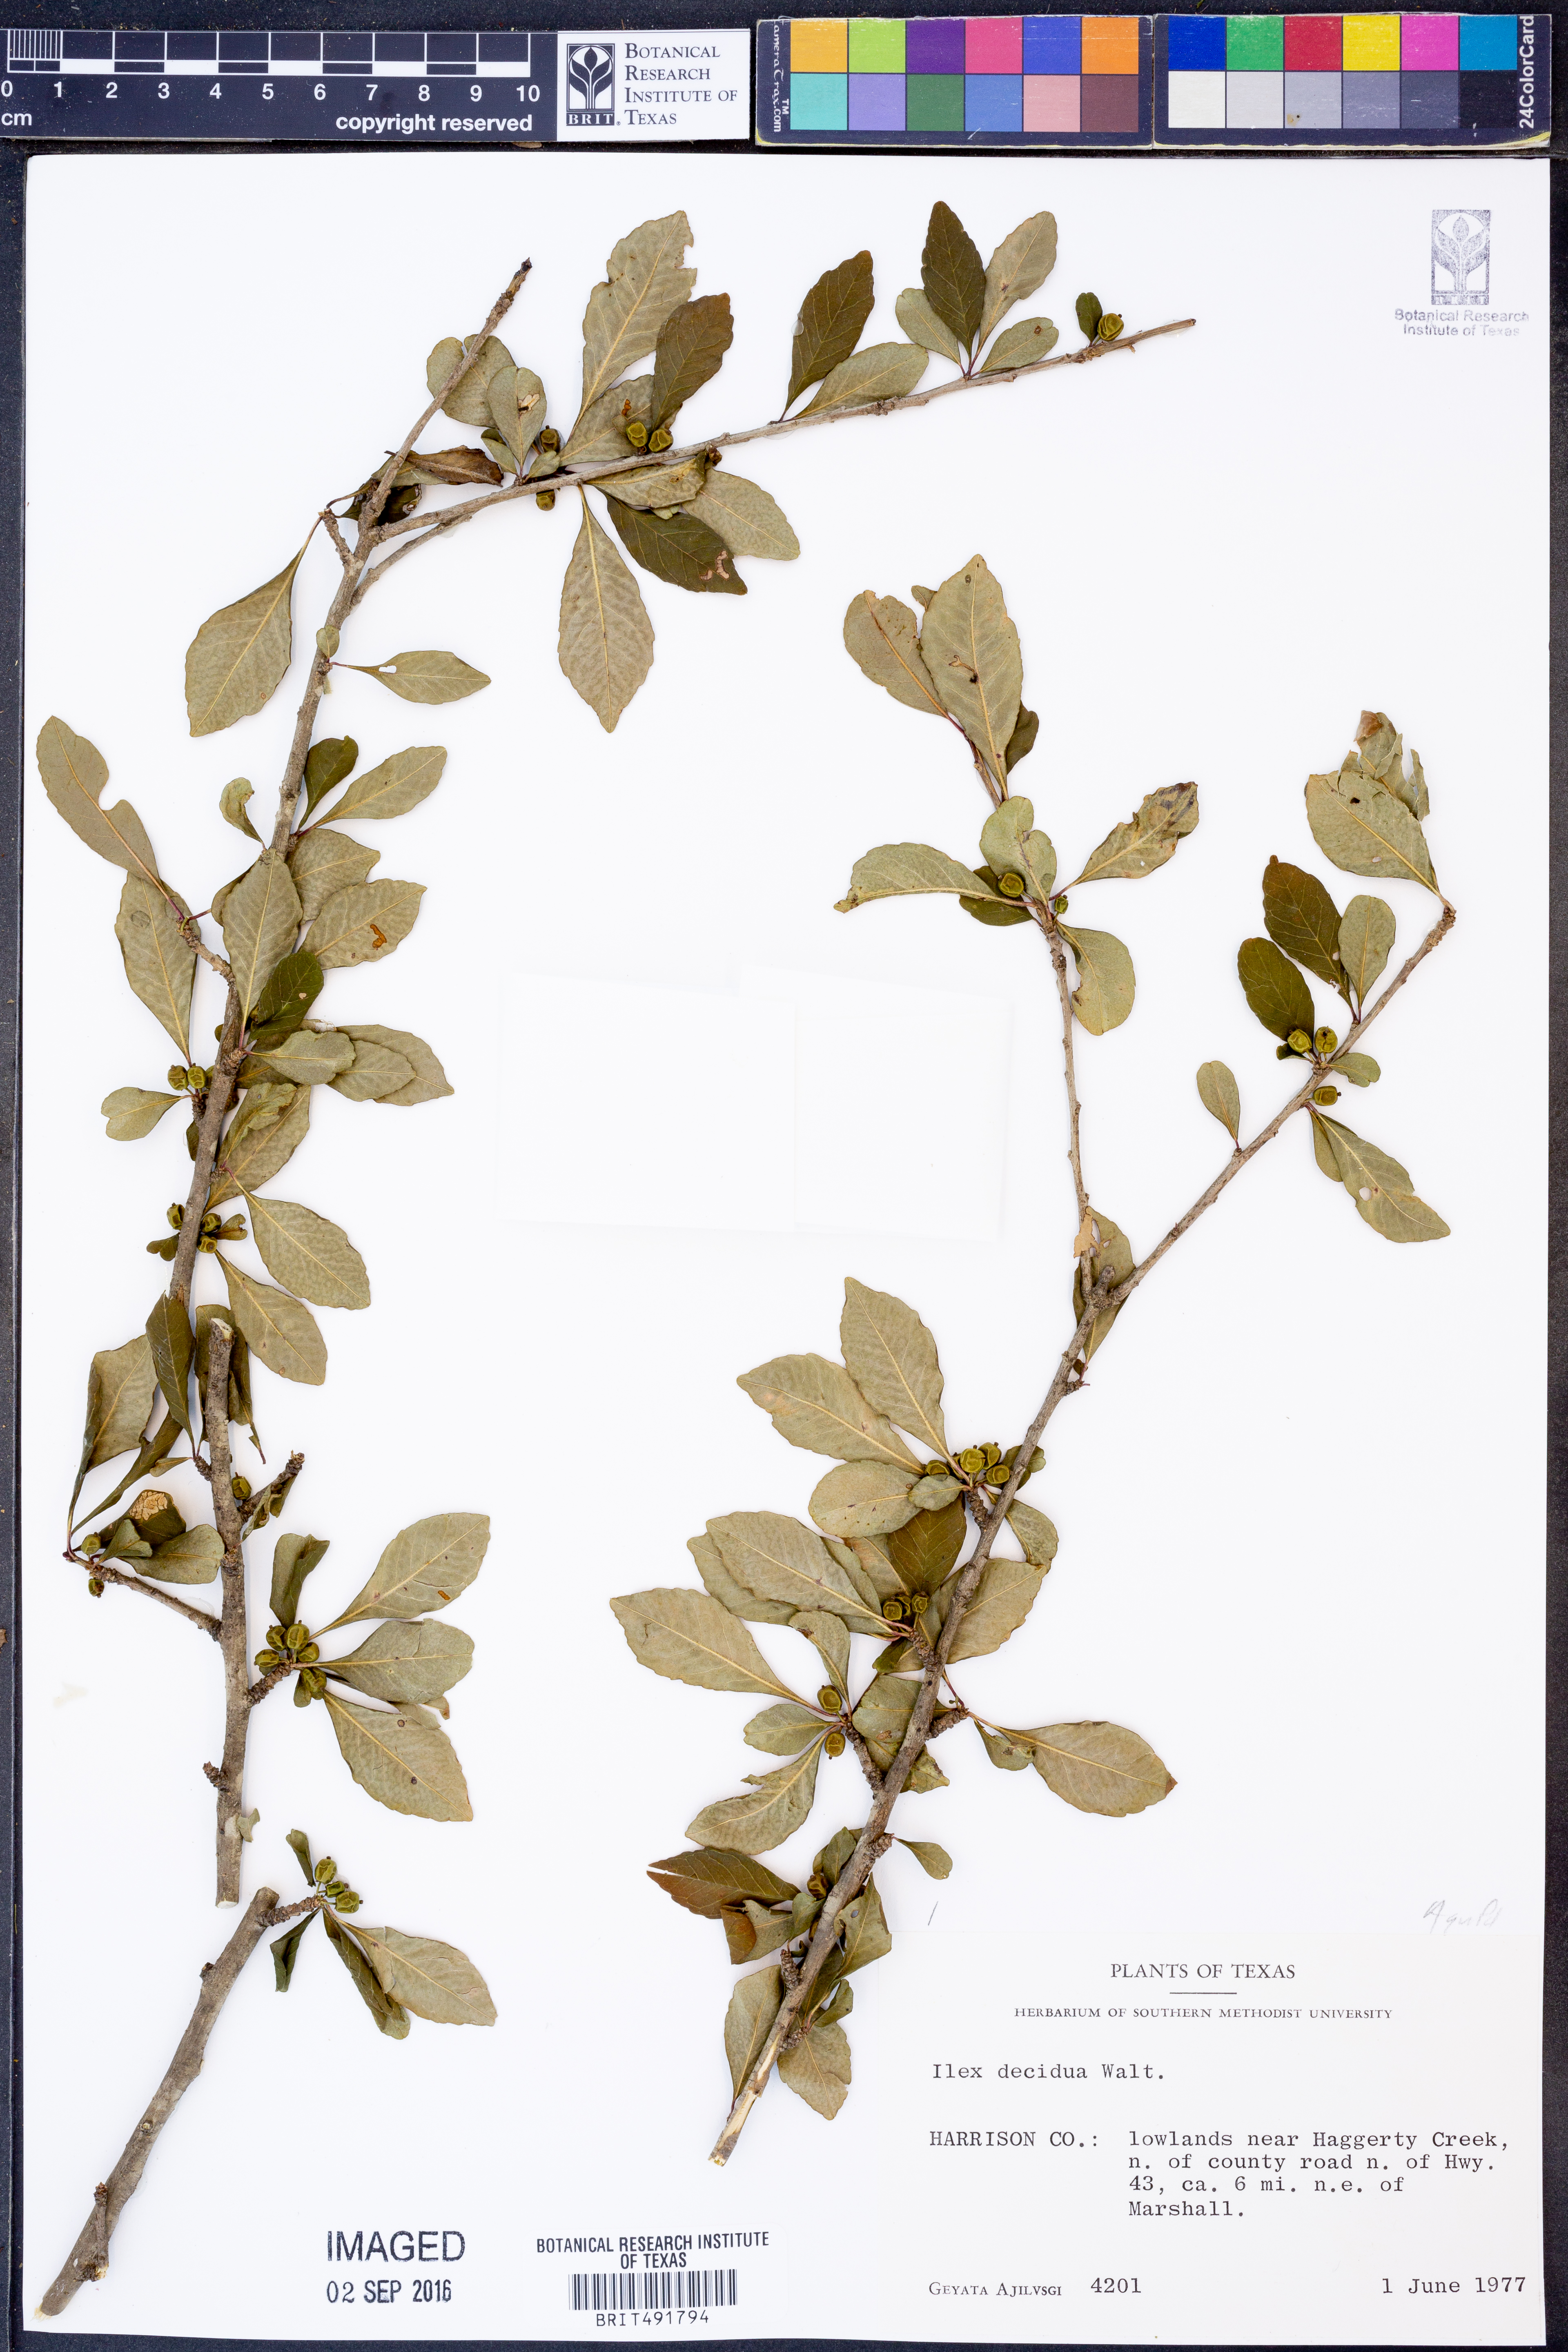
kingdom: Plantae
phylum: Tracheophyta
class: Magnoliopsida
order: Aquifoliales
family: Aquifoliaceae
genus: Ilex
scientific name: Ilex decidua
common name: Possum-haw
